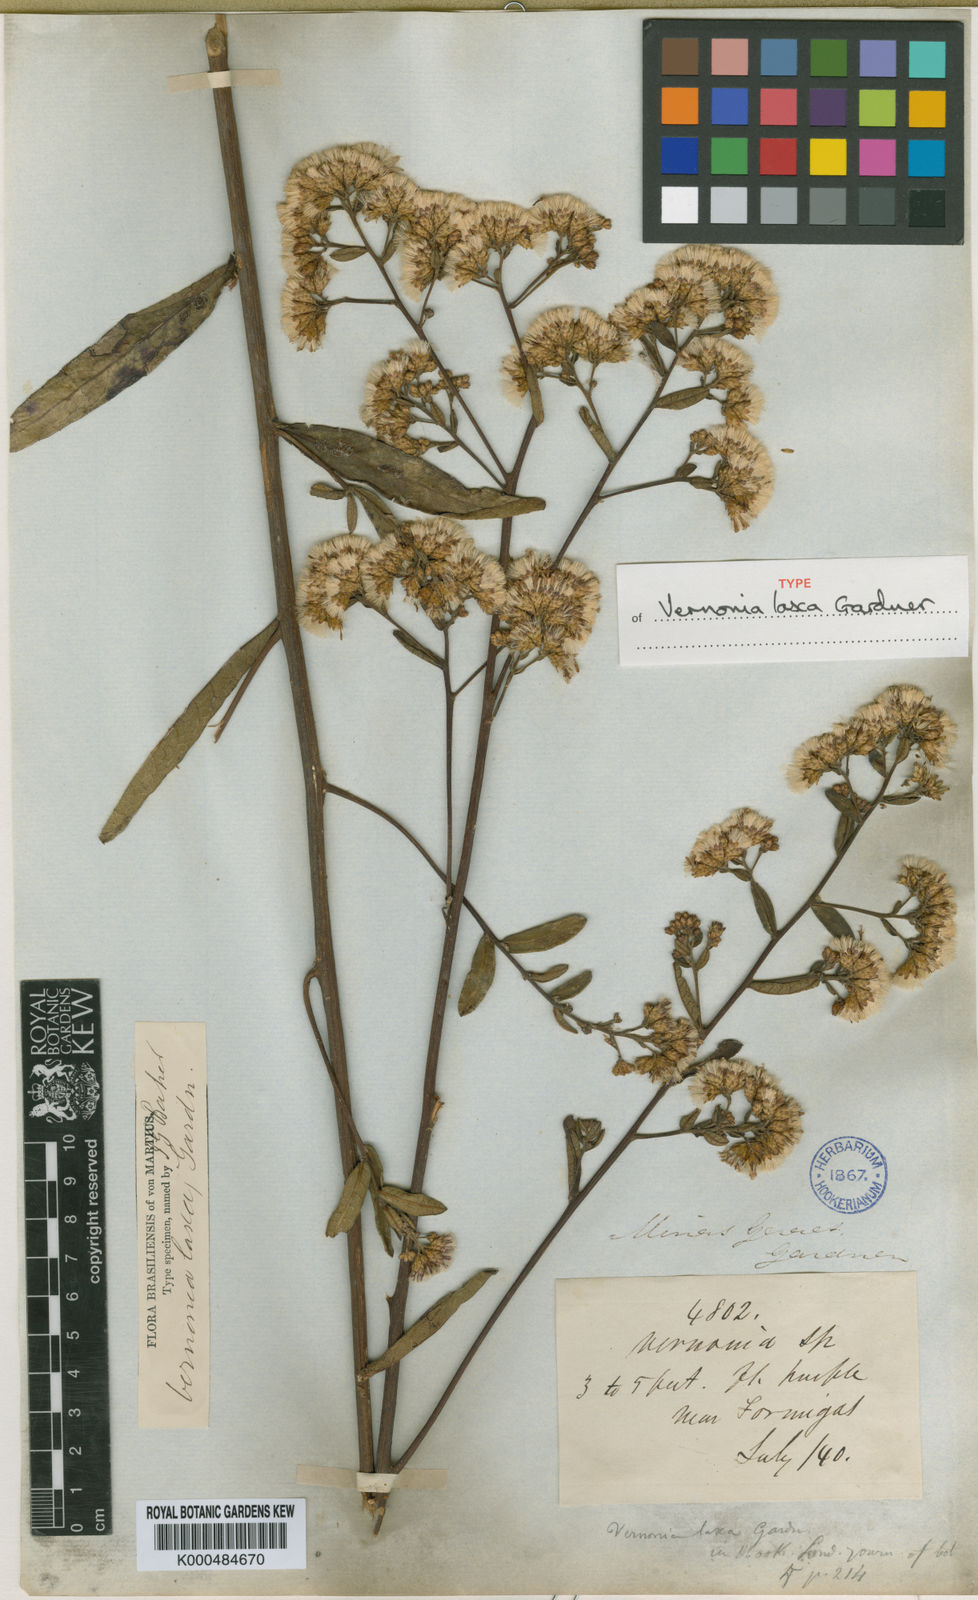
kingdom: Plantae
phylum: Tracheophyta
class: Magnoliopsida
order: Asterales
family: Asteraceae
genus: Vernonanthura
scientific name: Vernonanthura laxa
